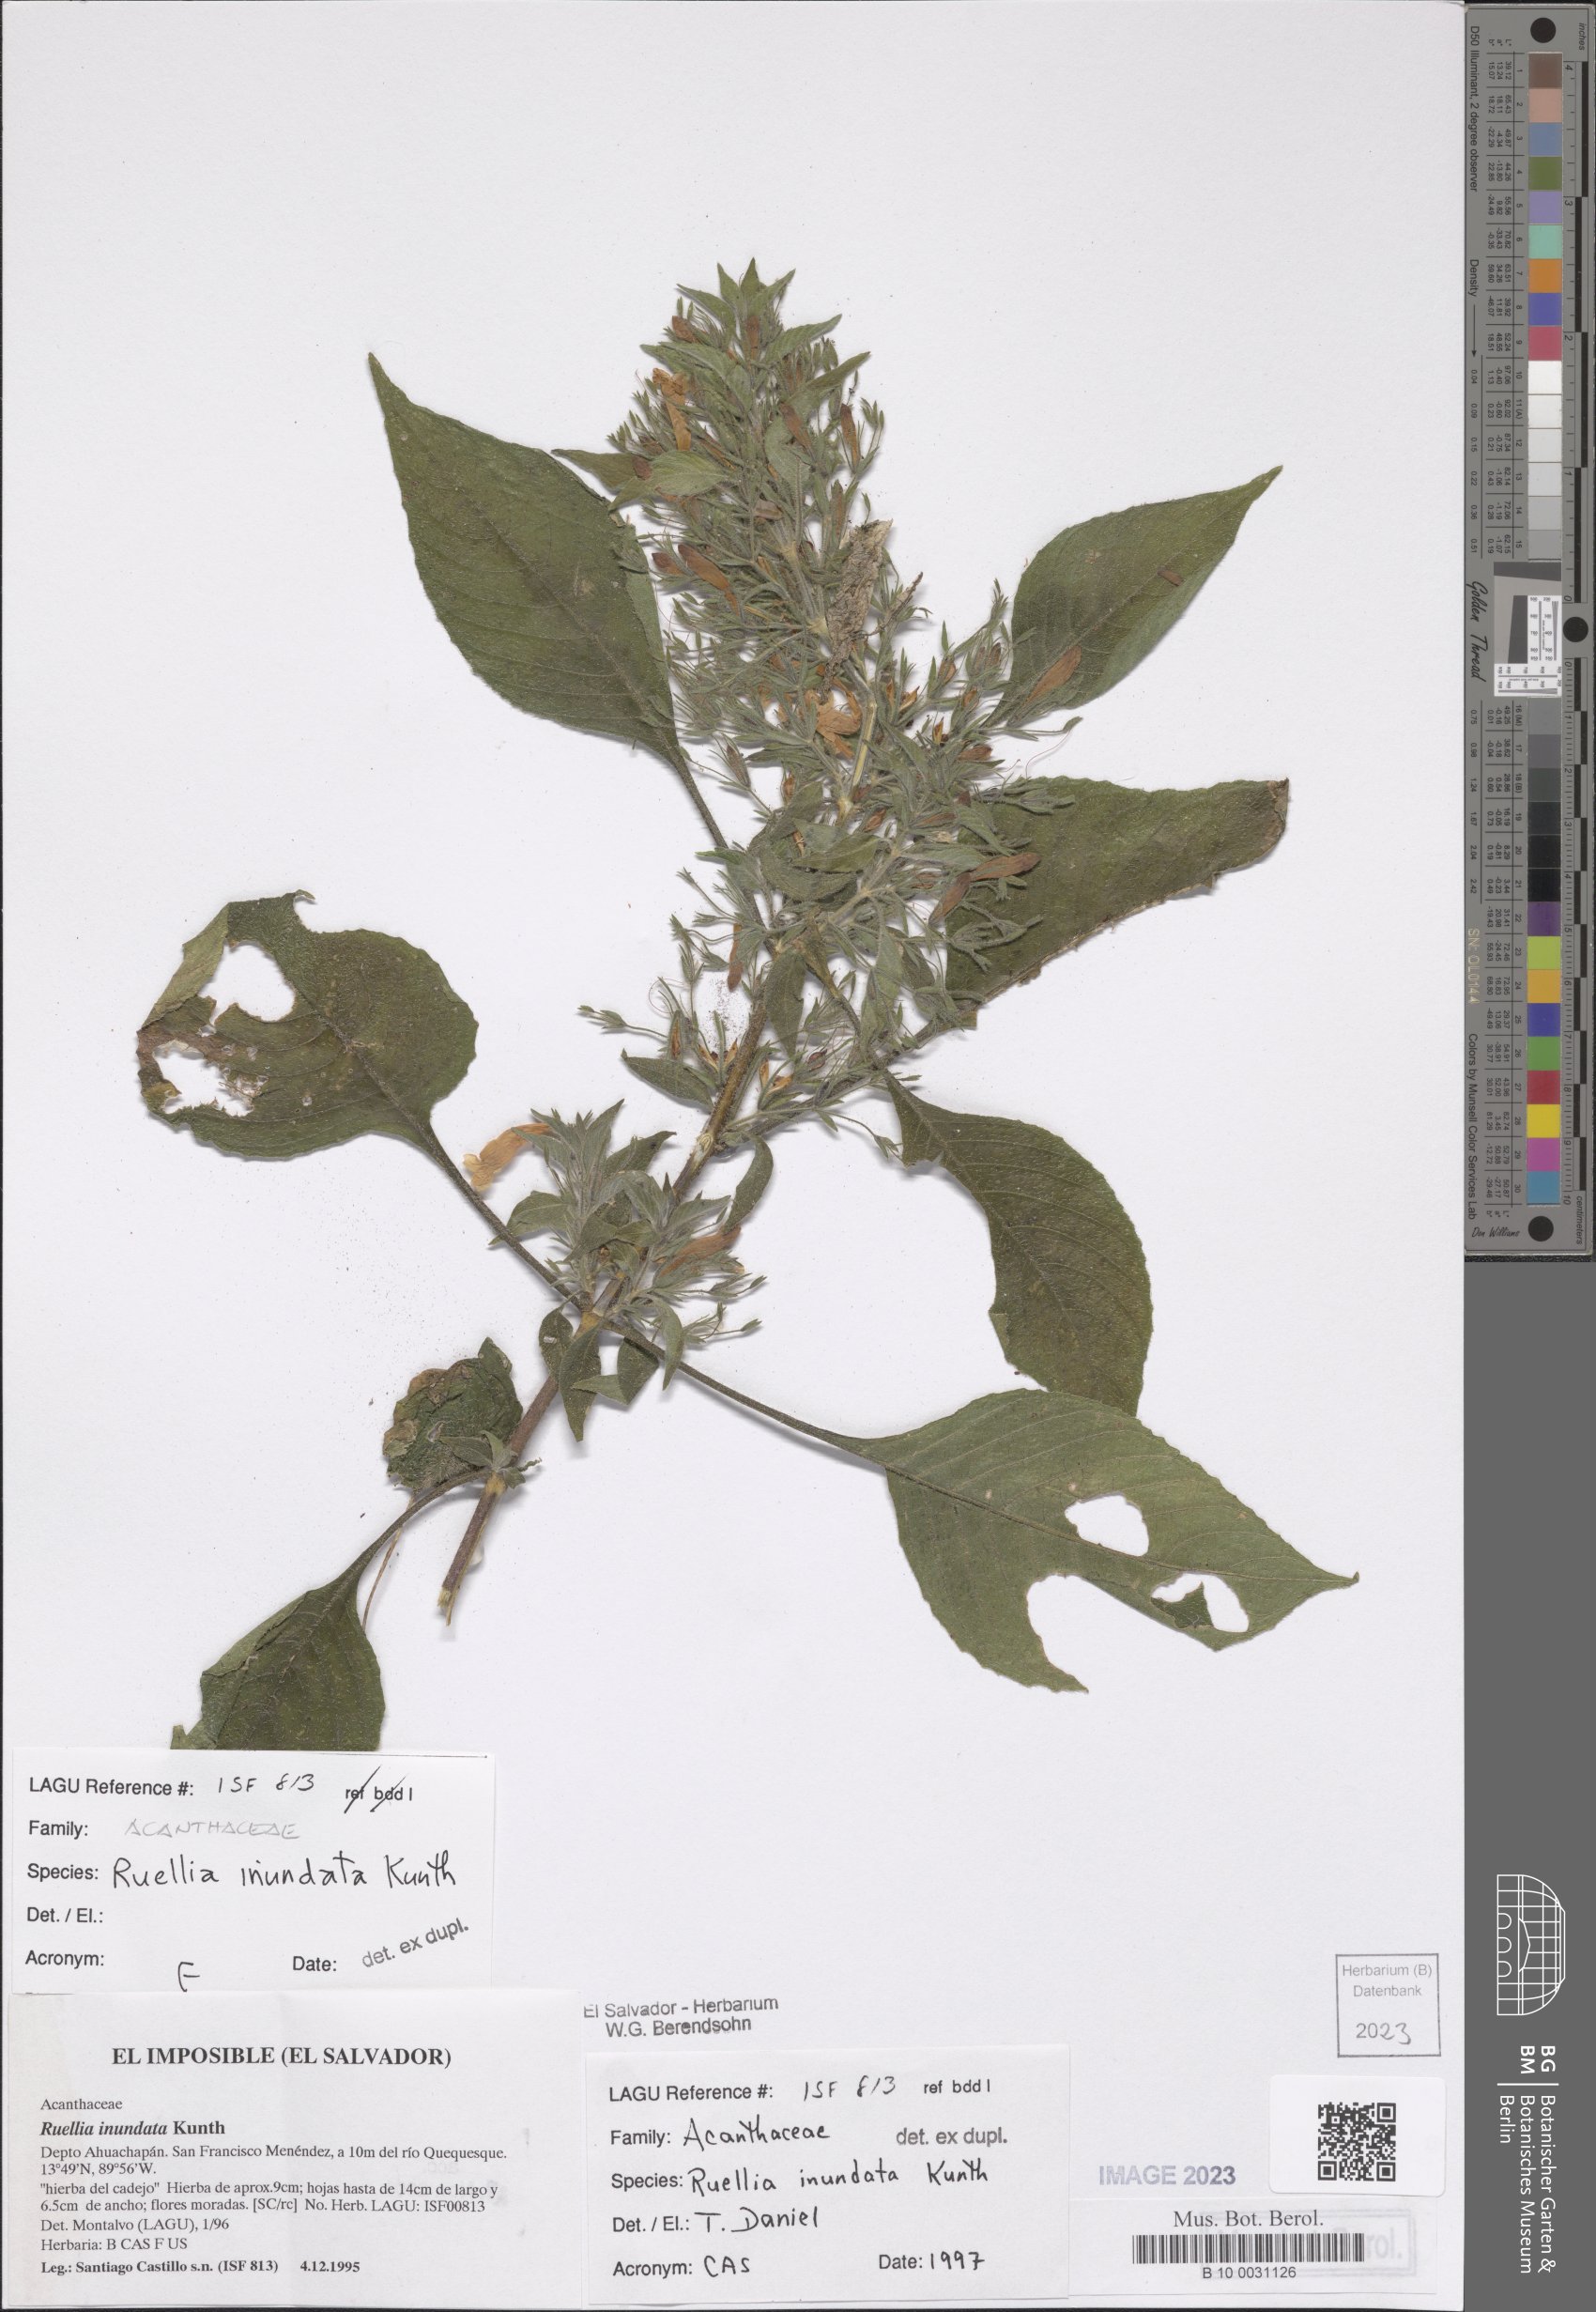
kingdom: Plantae
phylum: Tracheophyta
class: Magnoliopsida
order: Lamiales
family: Acanthaceae
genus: Ruellia
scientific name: Ruellia inundata
